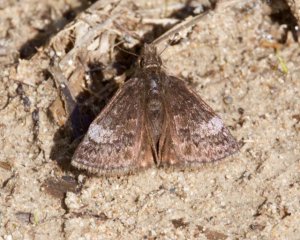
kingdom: Animalia
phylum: Arthropoda
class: Insecta
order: Lepidoptera
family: Hesperiidae
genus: Erynnis
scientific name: Erynnis icelus
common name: Dreamy Duskywing
